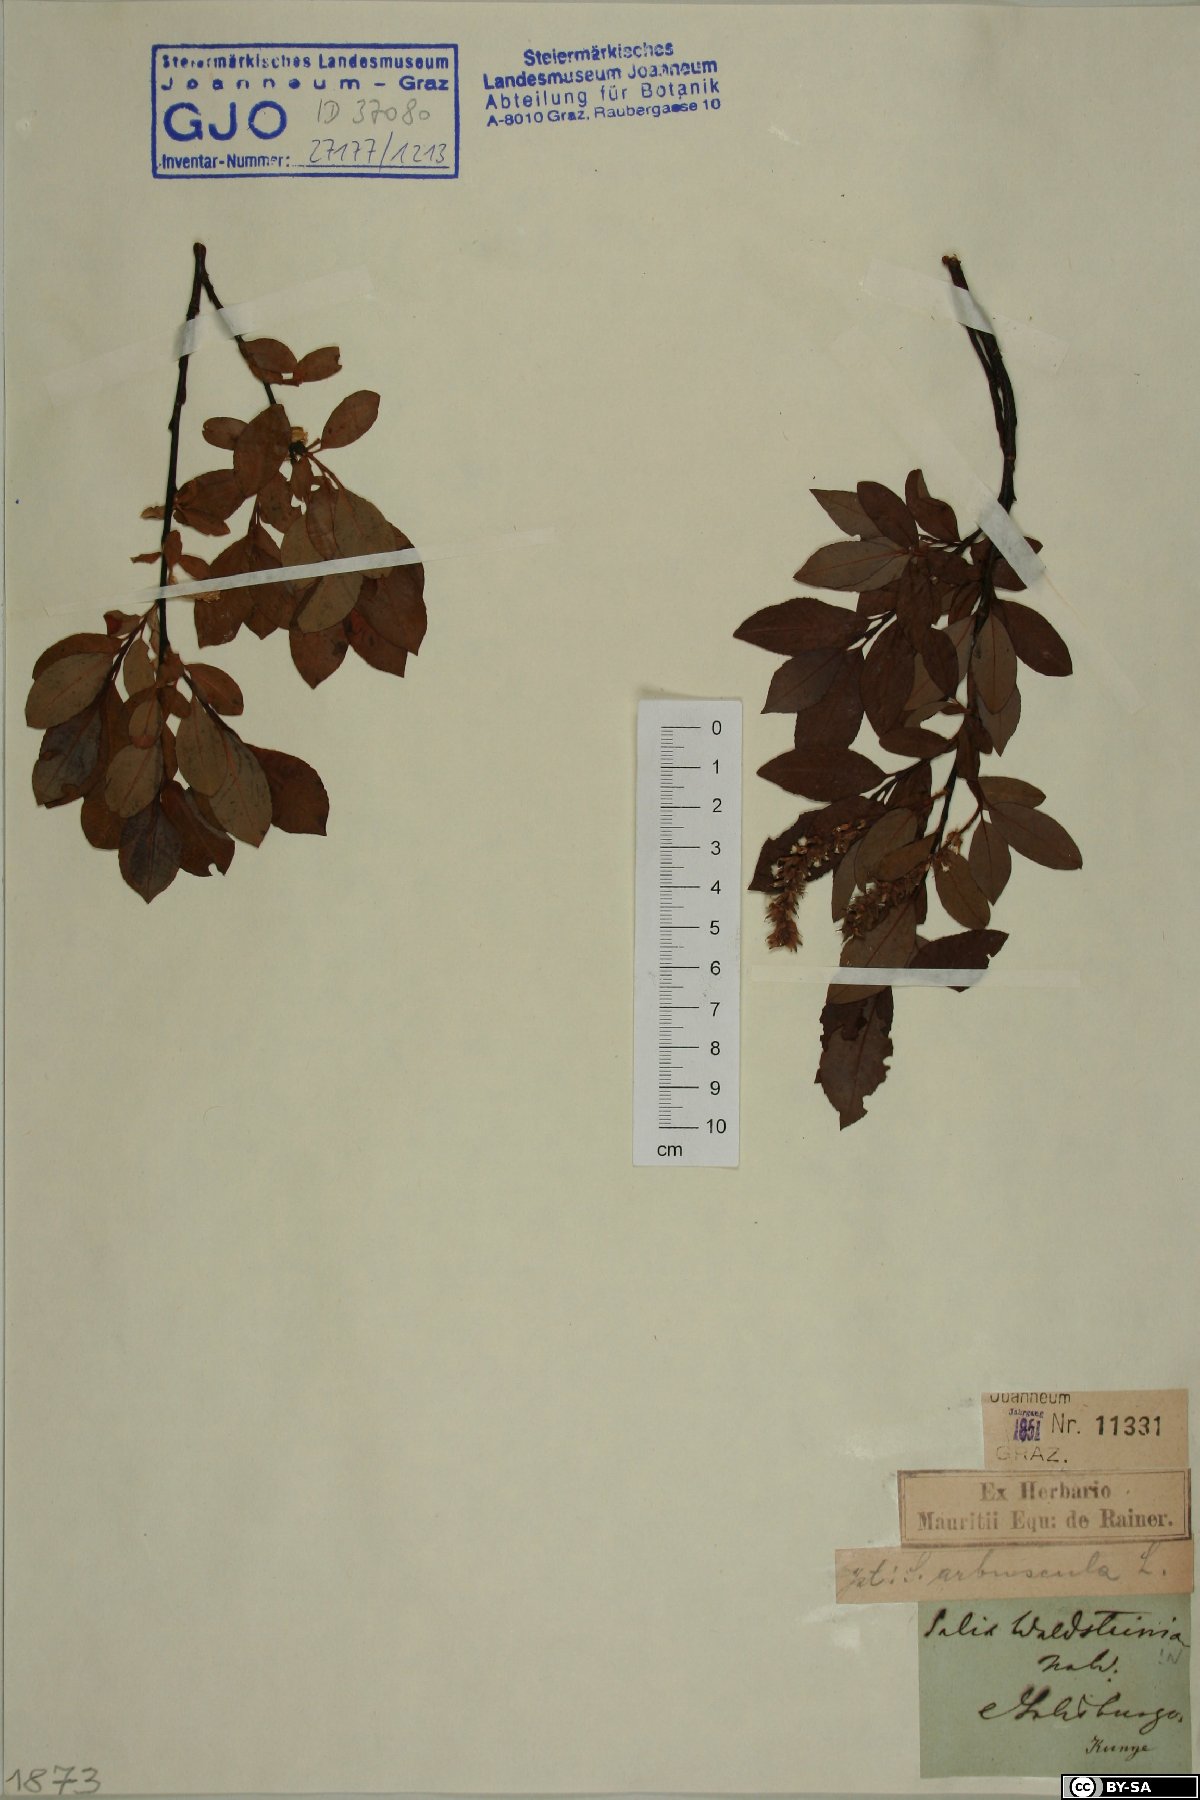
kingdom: Plantae
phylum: Tracheophyta
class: Magnoliopsida
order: Malpighiales
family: Salicaceae
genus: Salix
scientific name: Salix waldsteiniana
